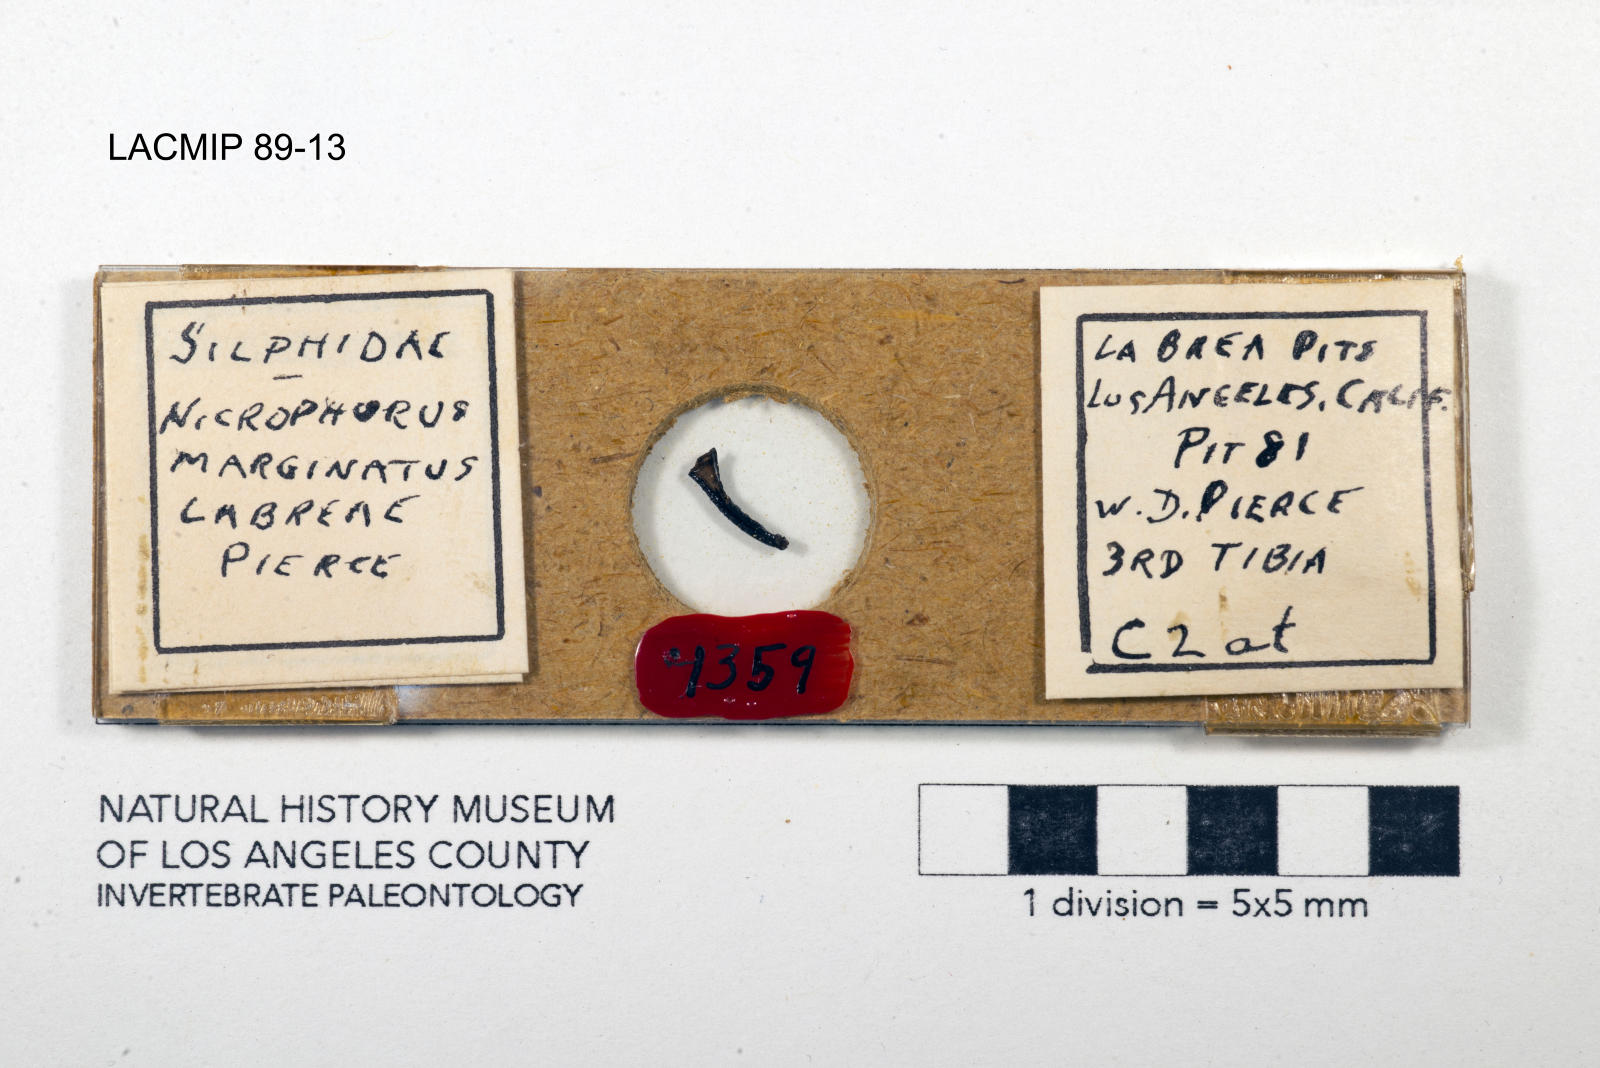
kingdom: Animalia
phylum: Arthropoda
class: Insecta
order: Coleoptera
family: Staphylinidae
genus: Nicrophorus
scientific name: Nicrophorus marginatus
